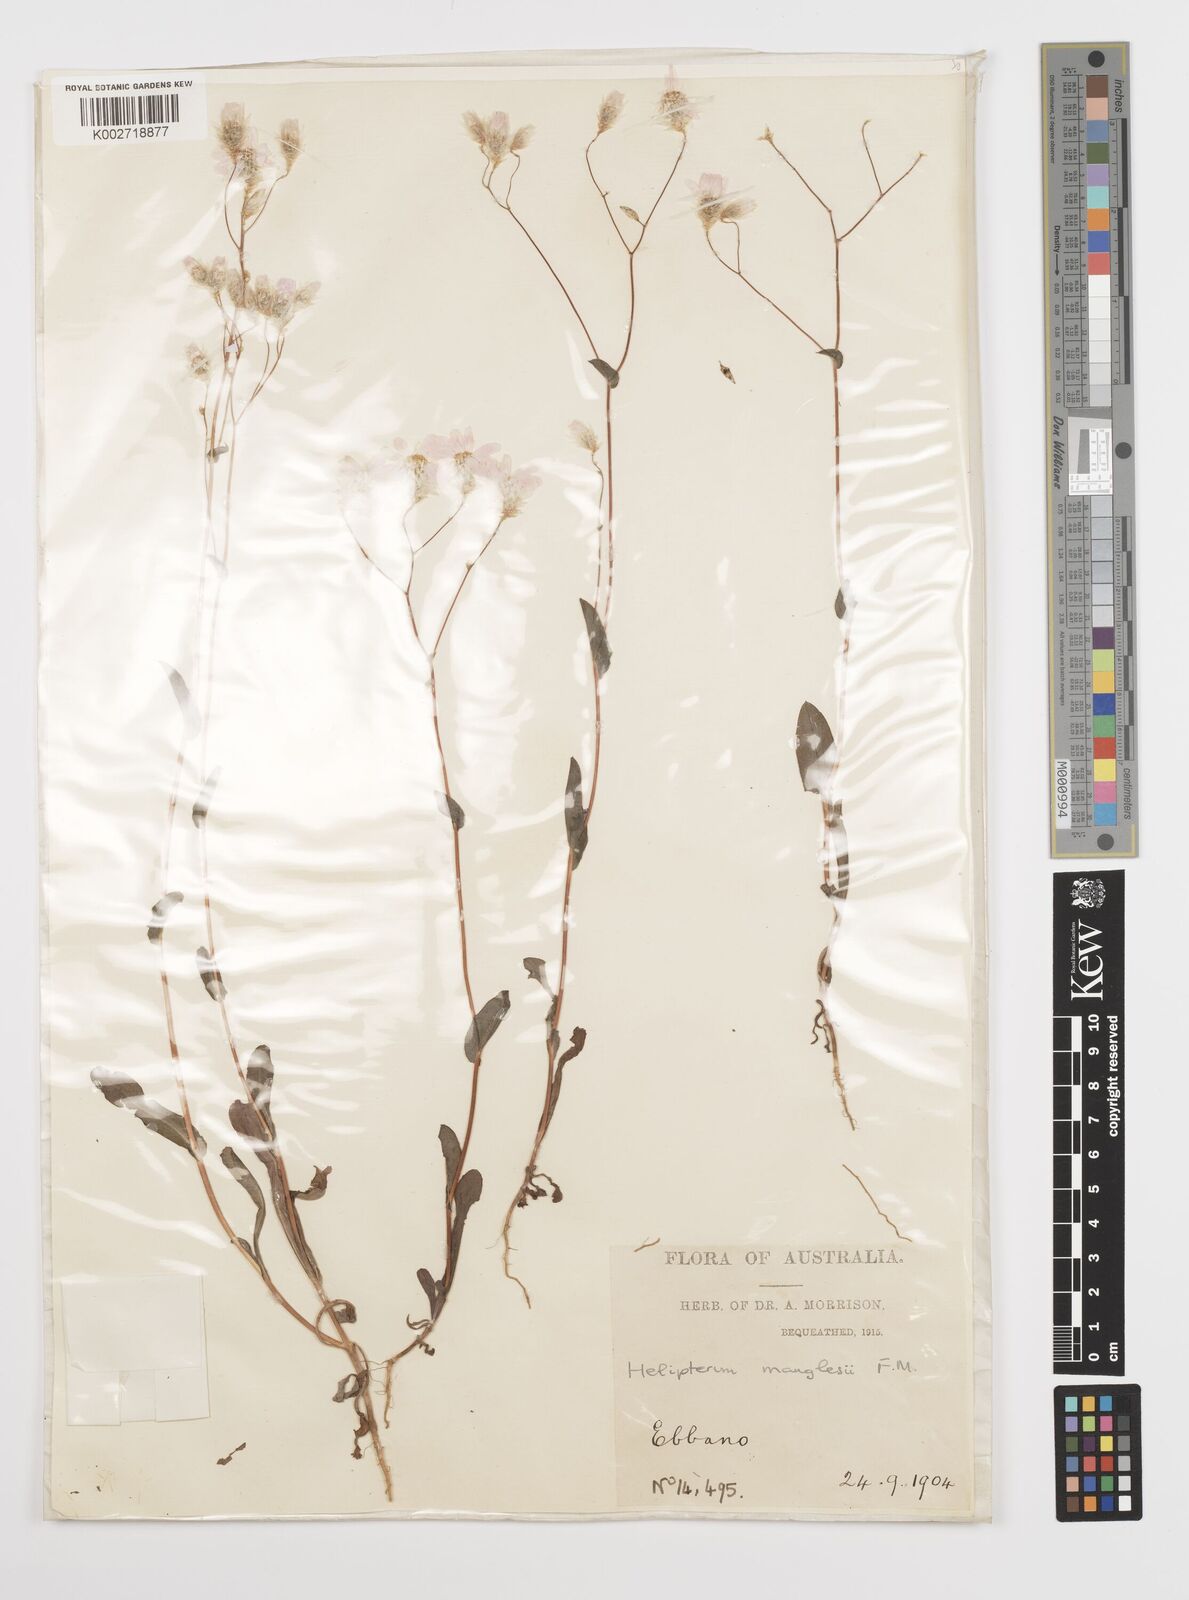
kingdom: Plantae
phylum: Tracheophyta
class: Magnoliopsida
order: Asterales
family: Asteraceae
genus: Rhodanthe
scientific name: Rhodanthe manglesii
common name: Pink sunray
